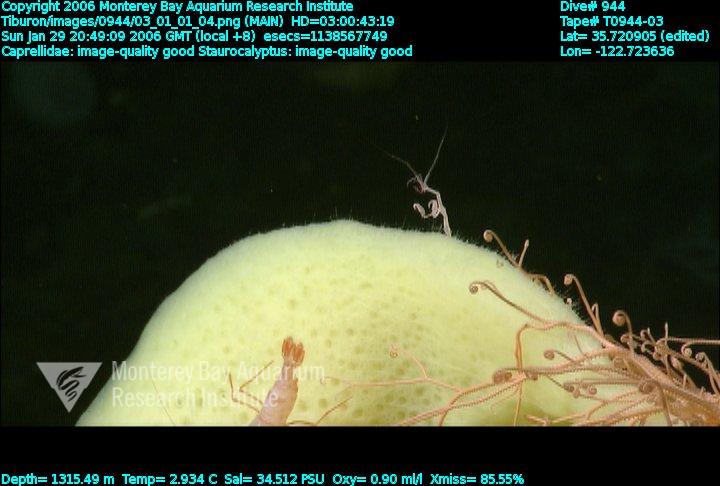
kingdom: Animalia
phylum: Porifera
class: Hexactinellida
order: Lyssacinosida
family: Rossellidae
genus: Staurocalyptus
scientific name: Staurocalyptus
